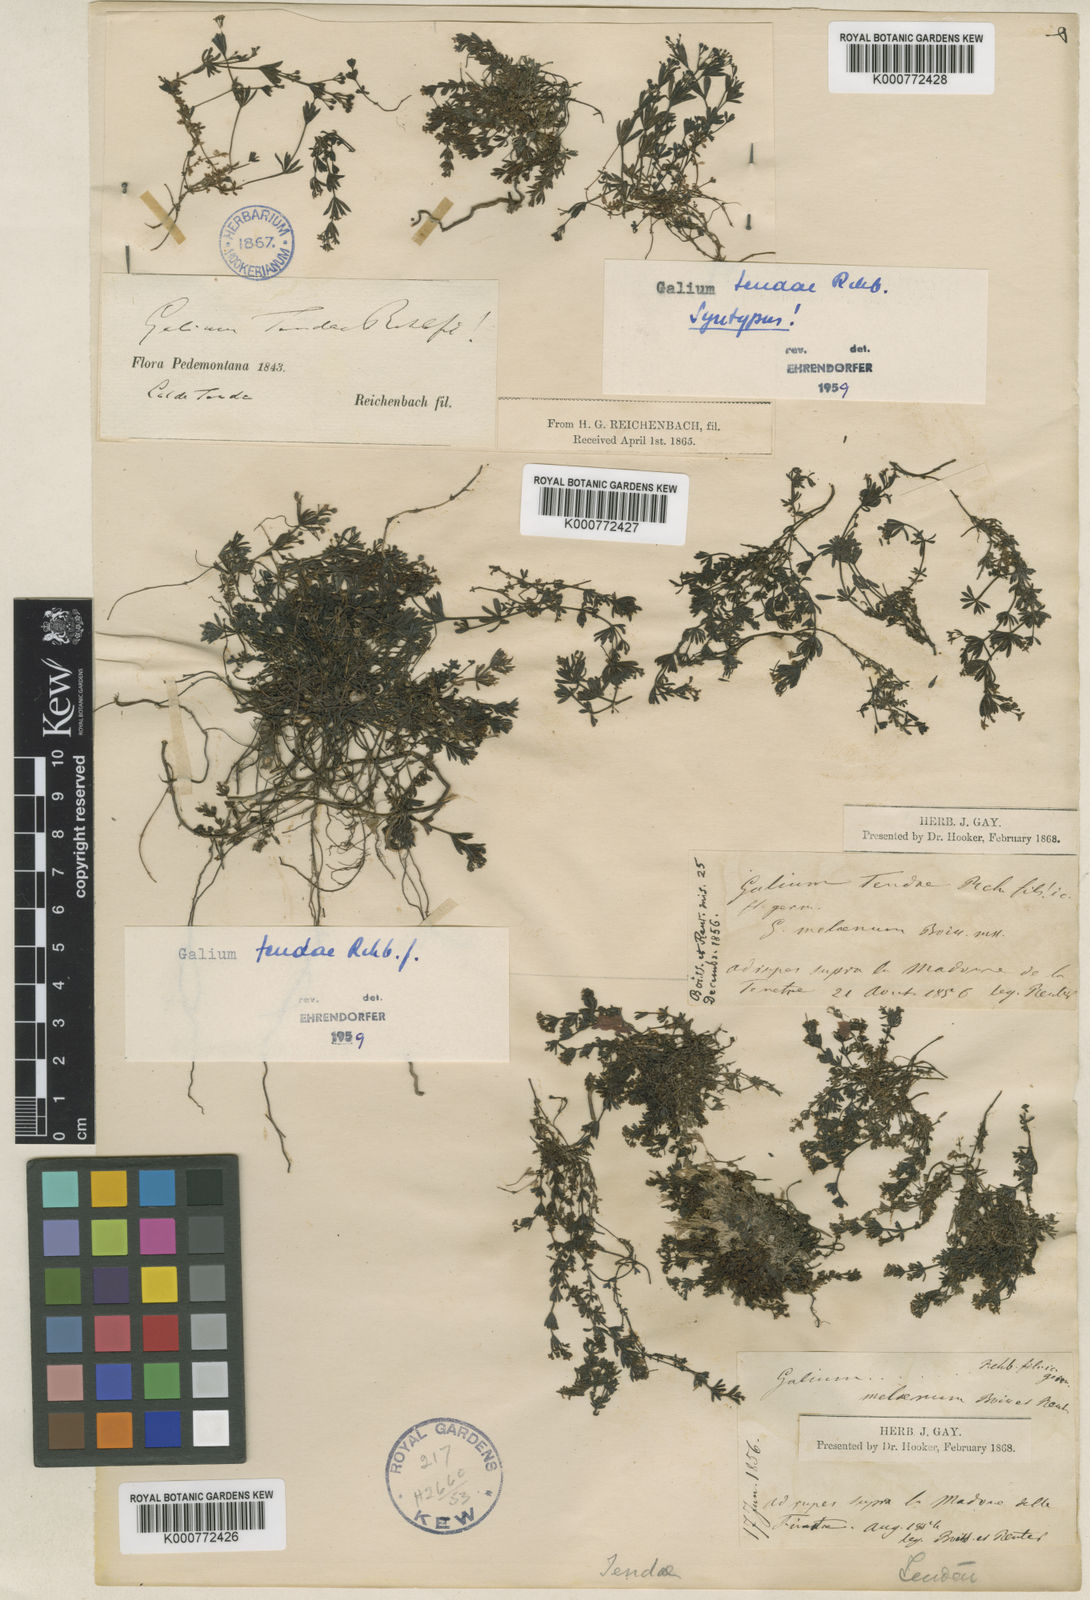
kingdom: Plantae
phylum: Tracheophyta
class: Magnoliopsida
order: Gentianales
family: Rubiaceae
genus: Galium
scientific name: Galium tendae
